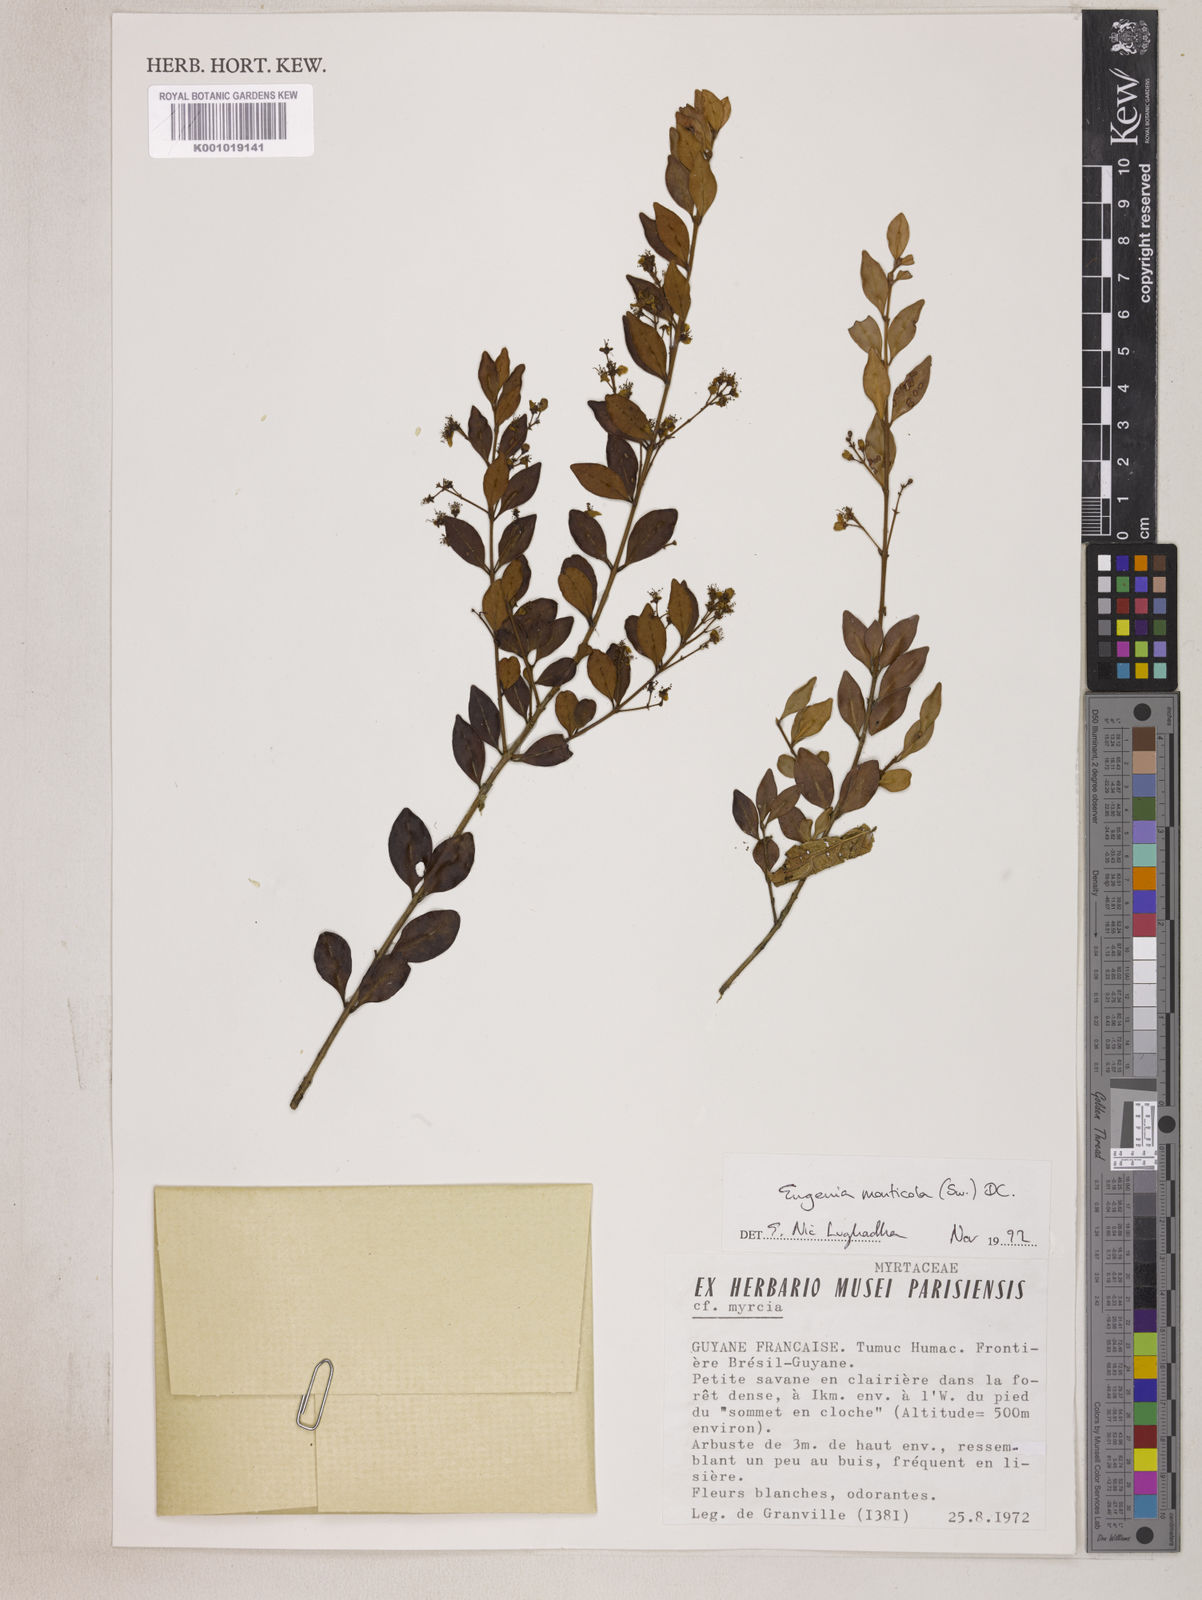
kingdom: Plantae
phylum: Tracheophyta
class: Magnoliopsida
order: Myrtales
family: Myrtaceae
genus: Eugenia
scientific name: Eugenia monticola
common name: Birds berry
